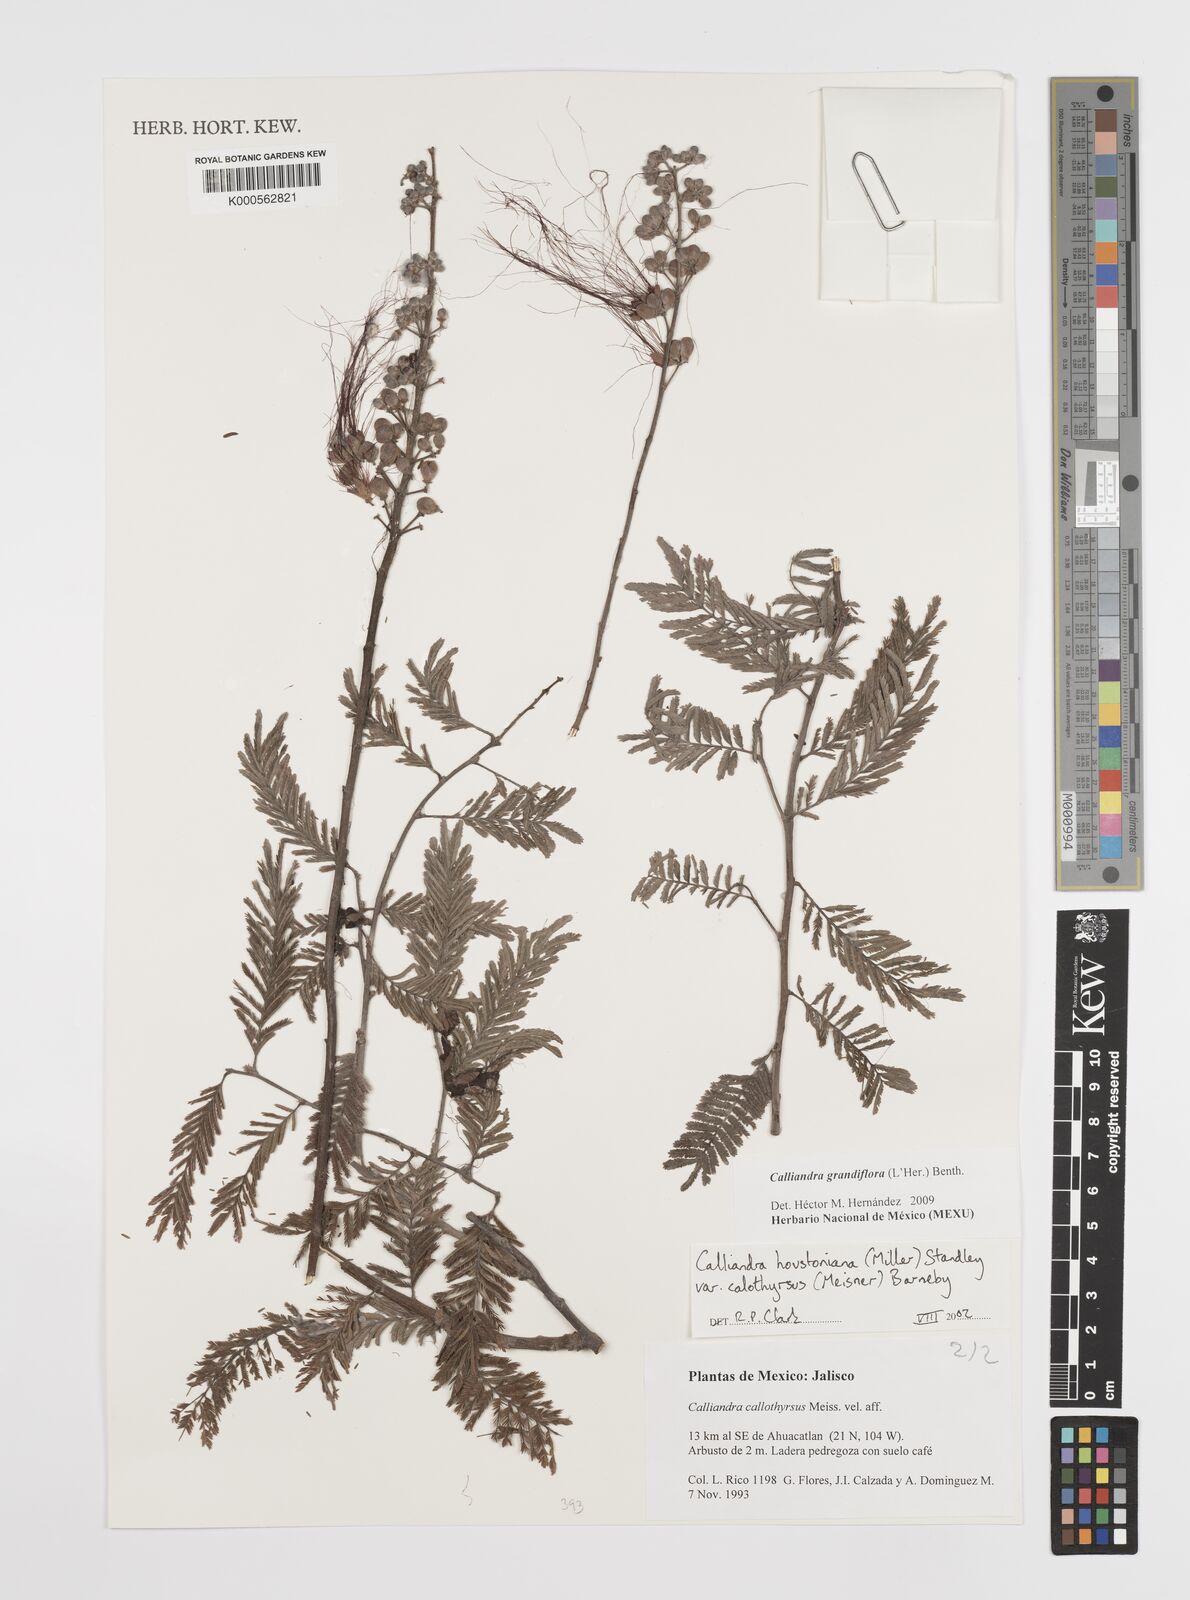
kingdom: Plantae
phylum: Tracheophyta
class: Magnoliopsida
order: Fabales
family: Fabaceae
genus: Calliandra
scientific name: Calliandra houstoniana
